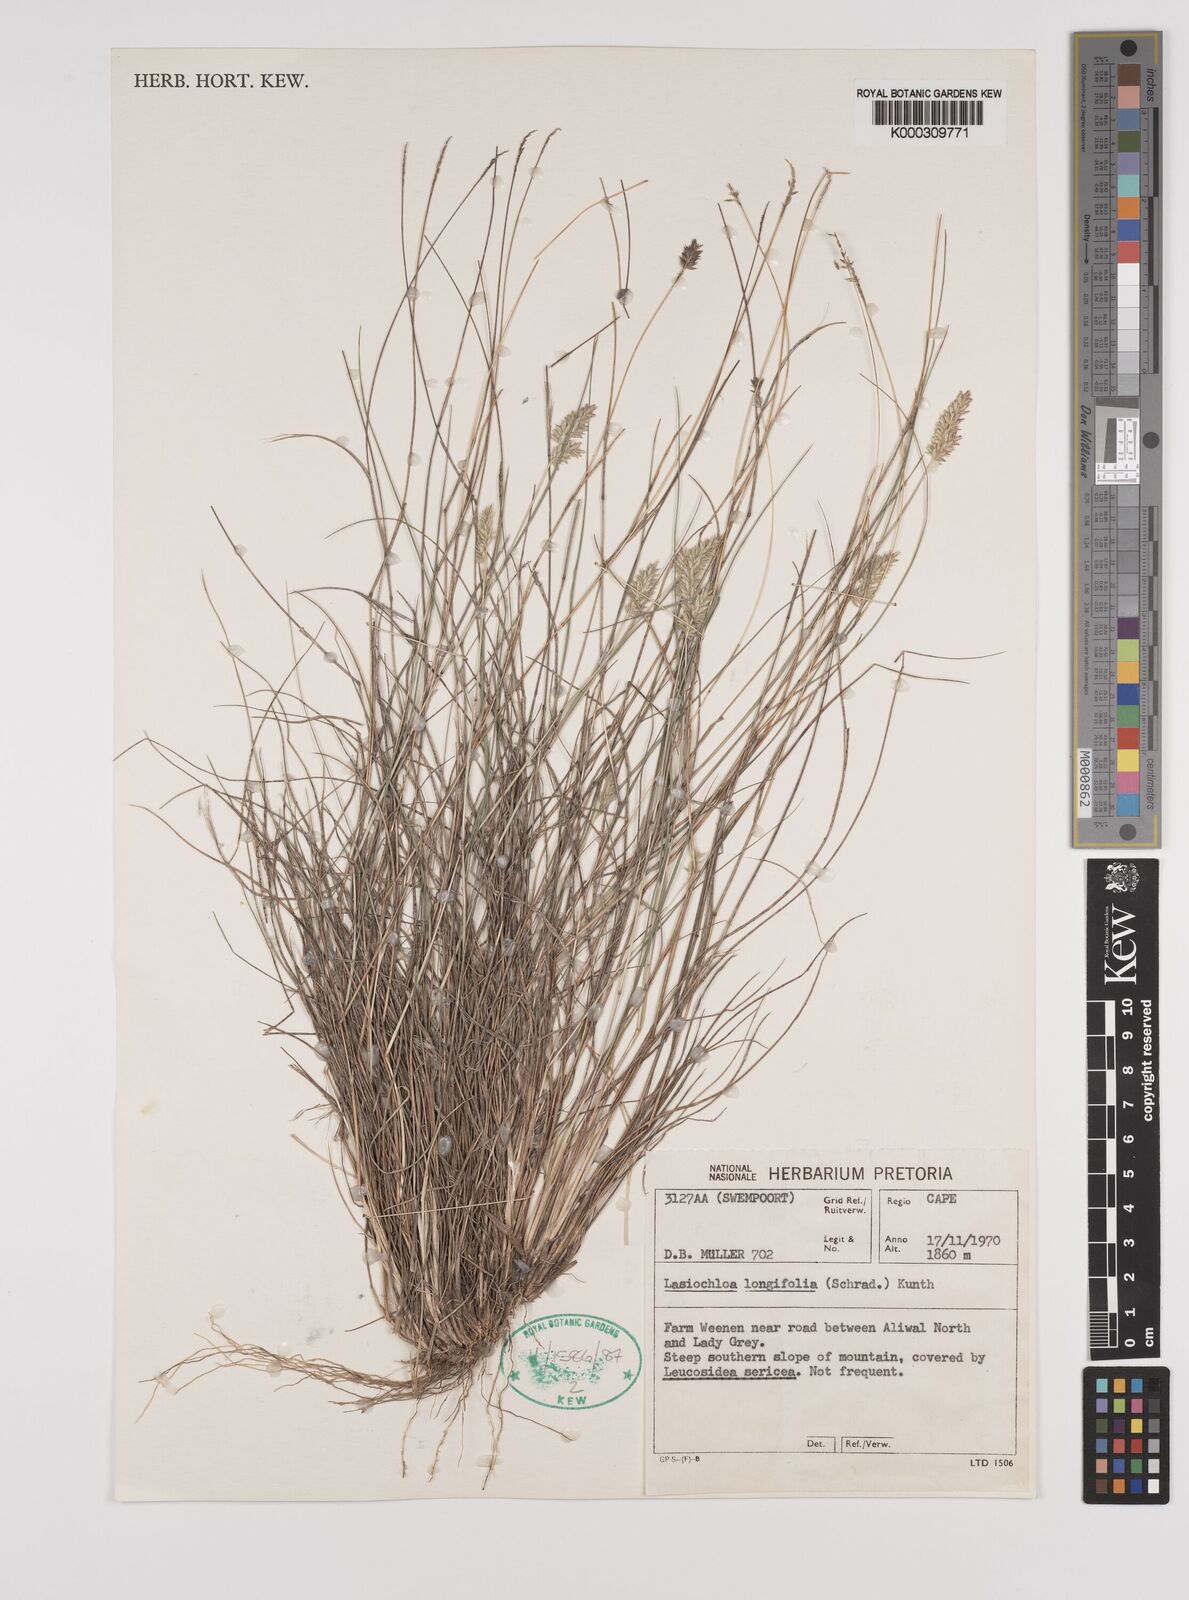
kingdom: Plantae
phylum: Tracheophyta
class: Liliopsida
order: Poales
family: Poaceae
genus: Tribolium
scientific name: Tribolium hispidum
